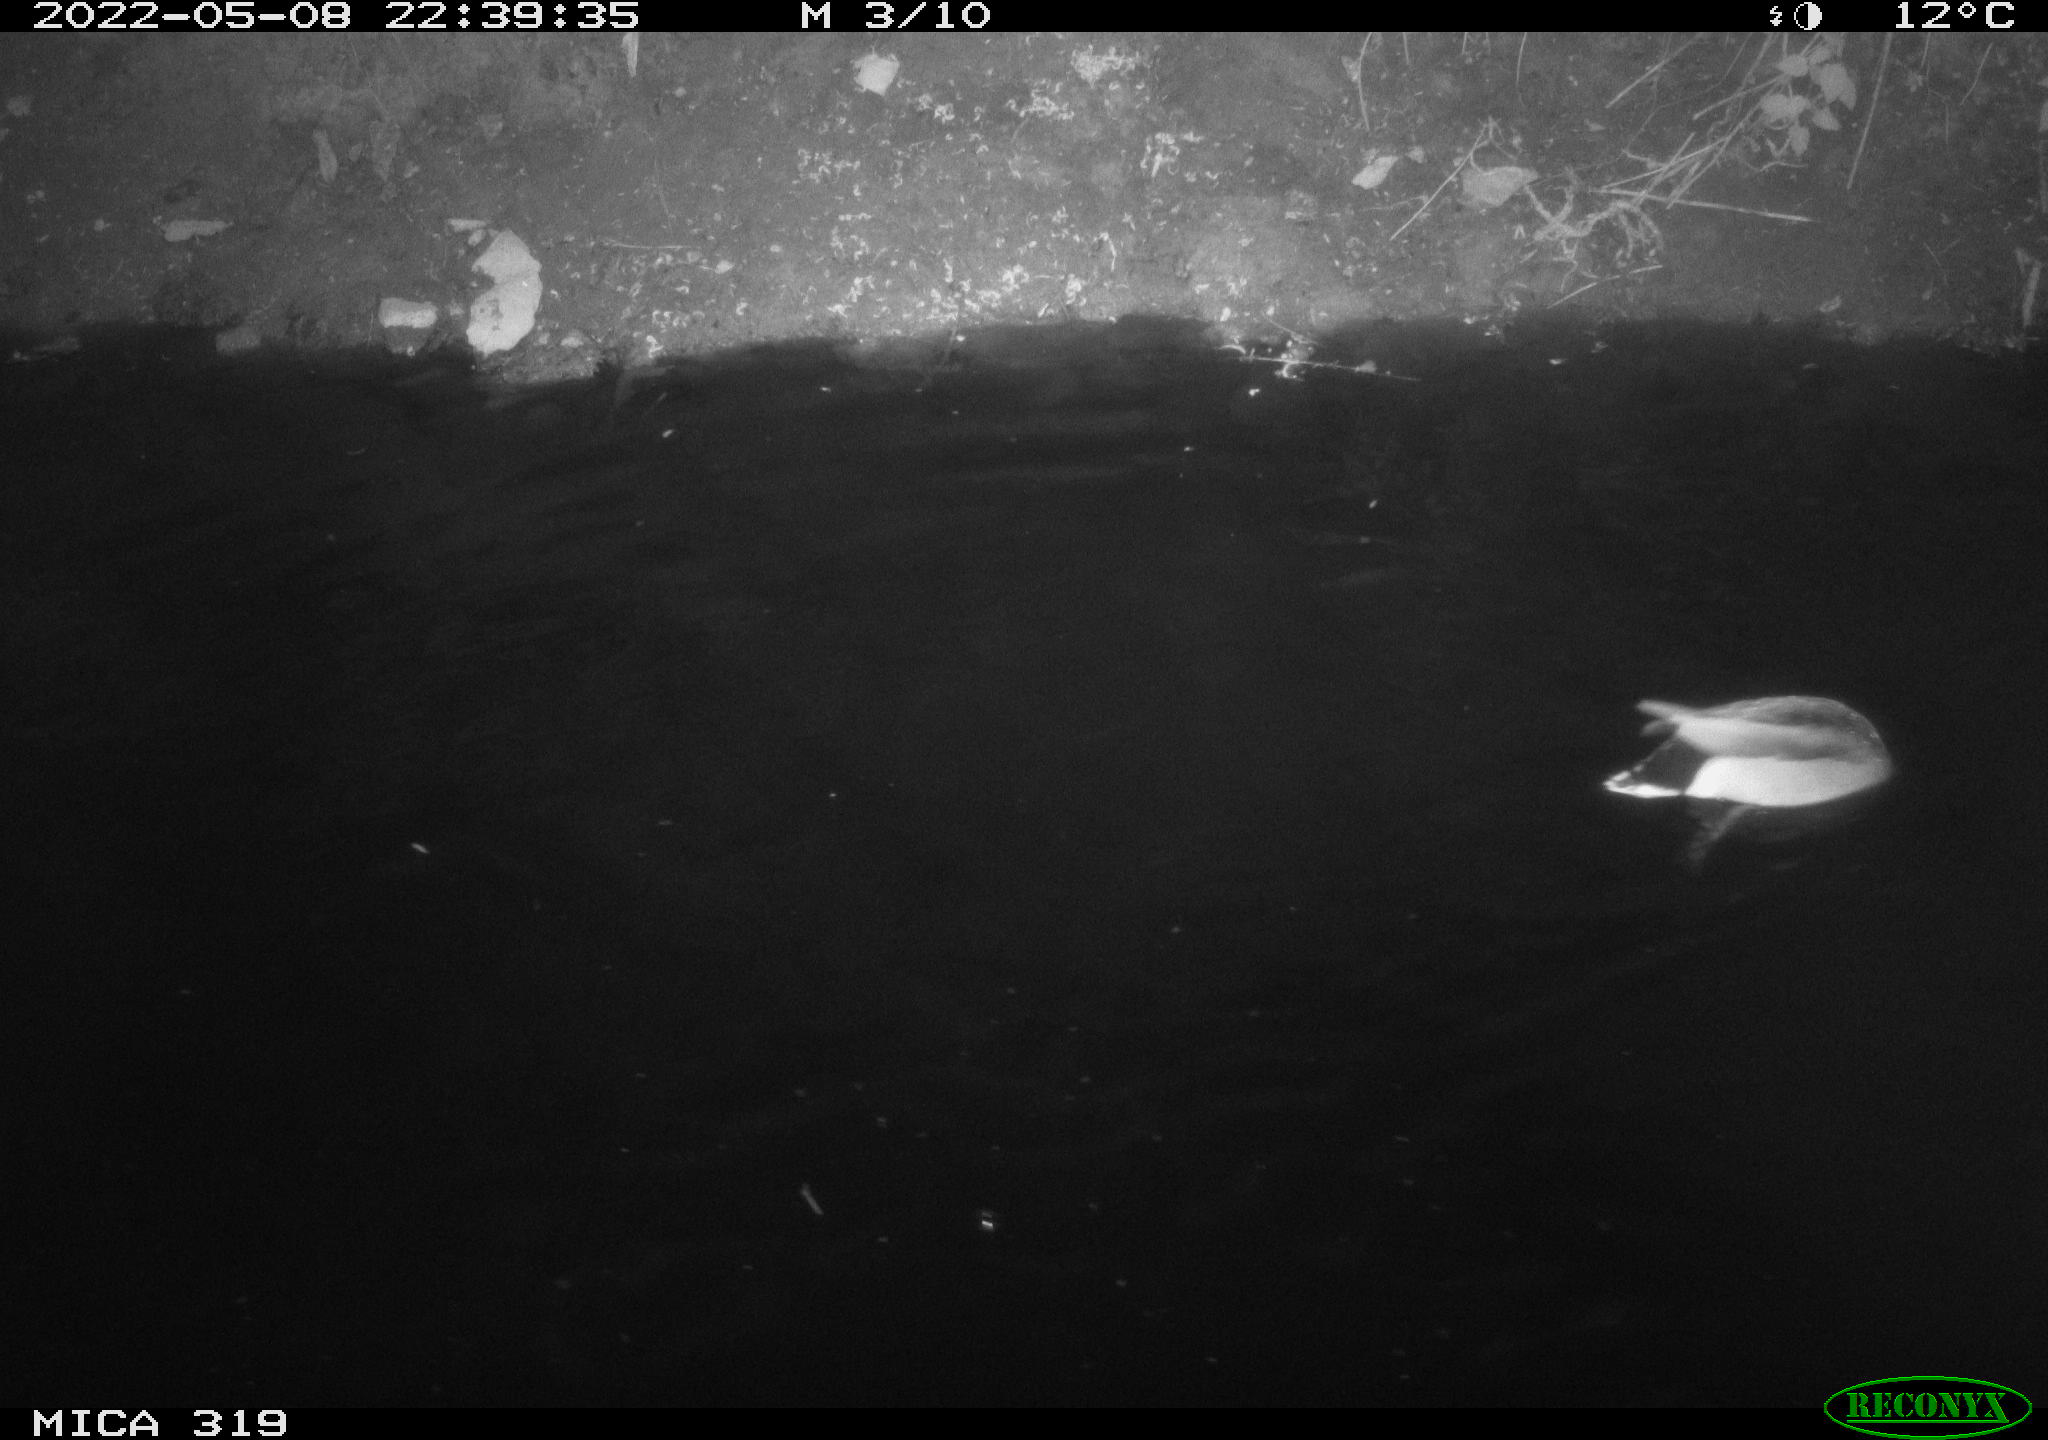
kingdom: Animalia
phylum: Chordata
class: Aves
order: Anseriformes
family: Anatidae
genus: Anas
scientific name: Anas platyrhynchos
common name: Mallard
